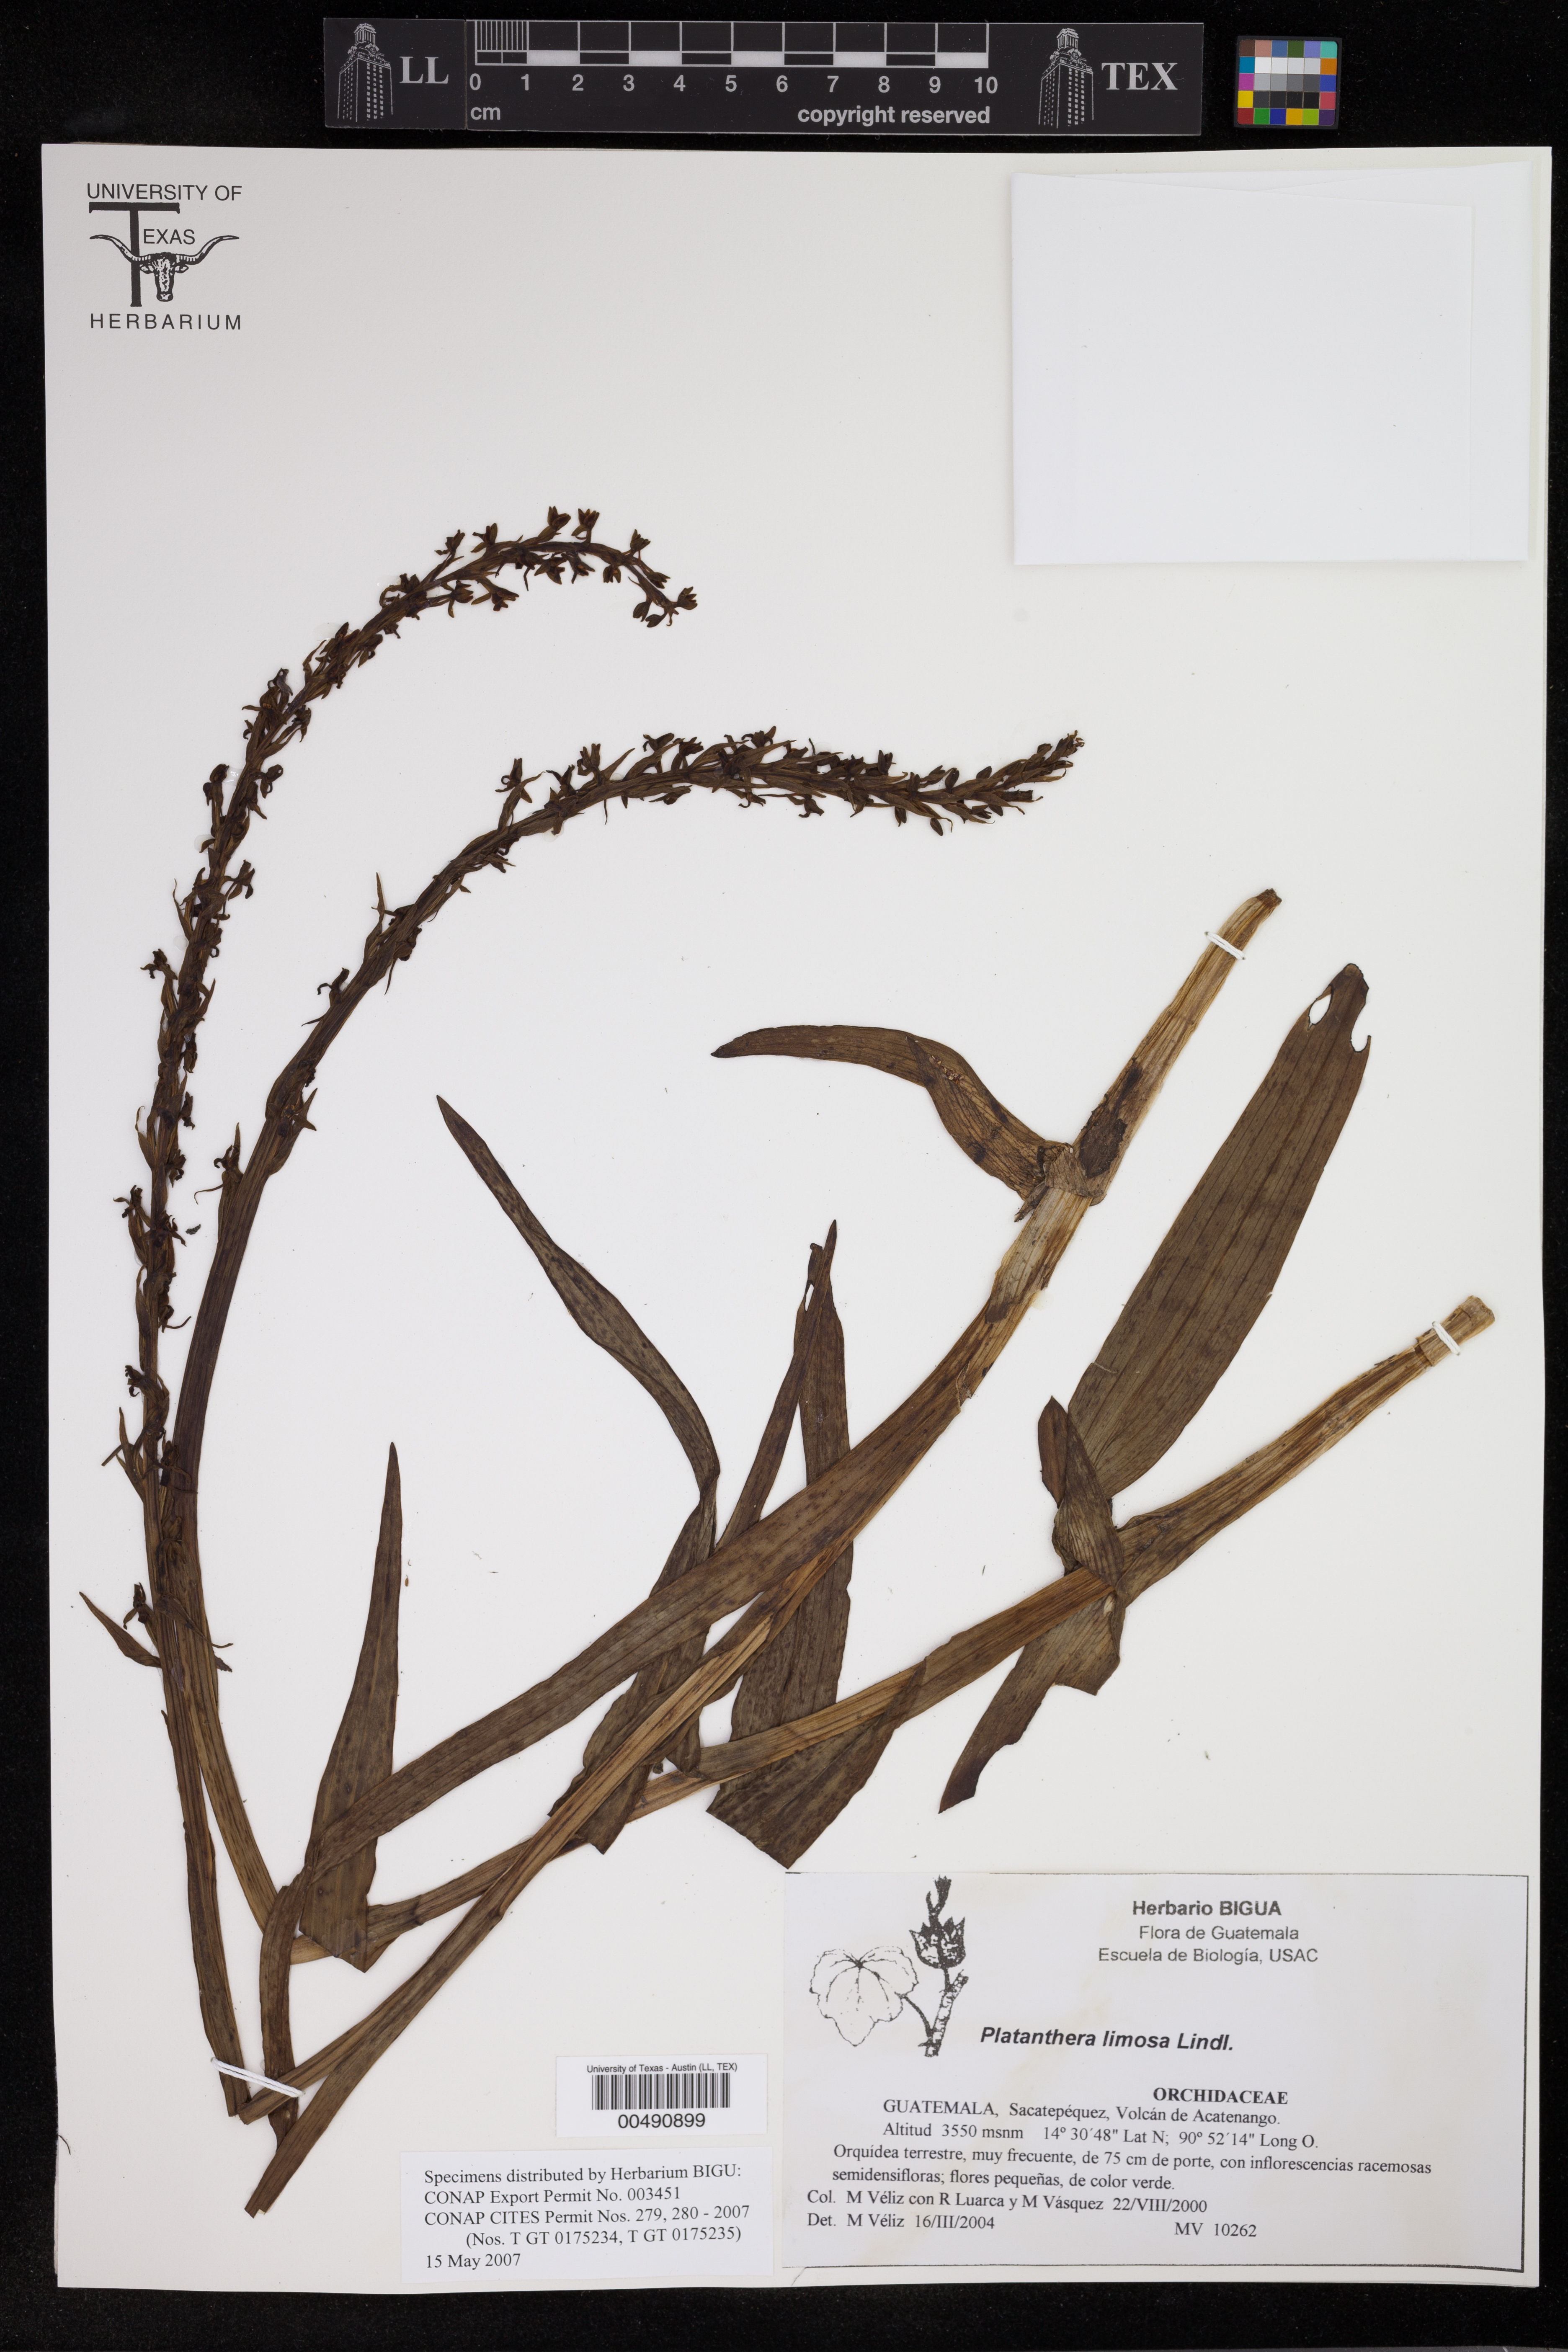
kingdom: Plantae
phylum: Tracheophyta
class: Liliopsida
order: Asparagales
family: Orchidaceae
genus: Platanthera
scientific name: Platanthera finetiana
